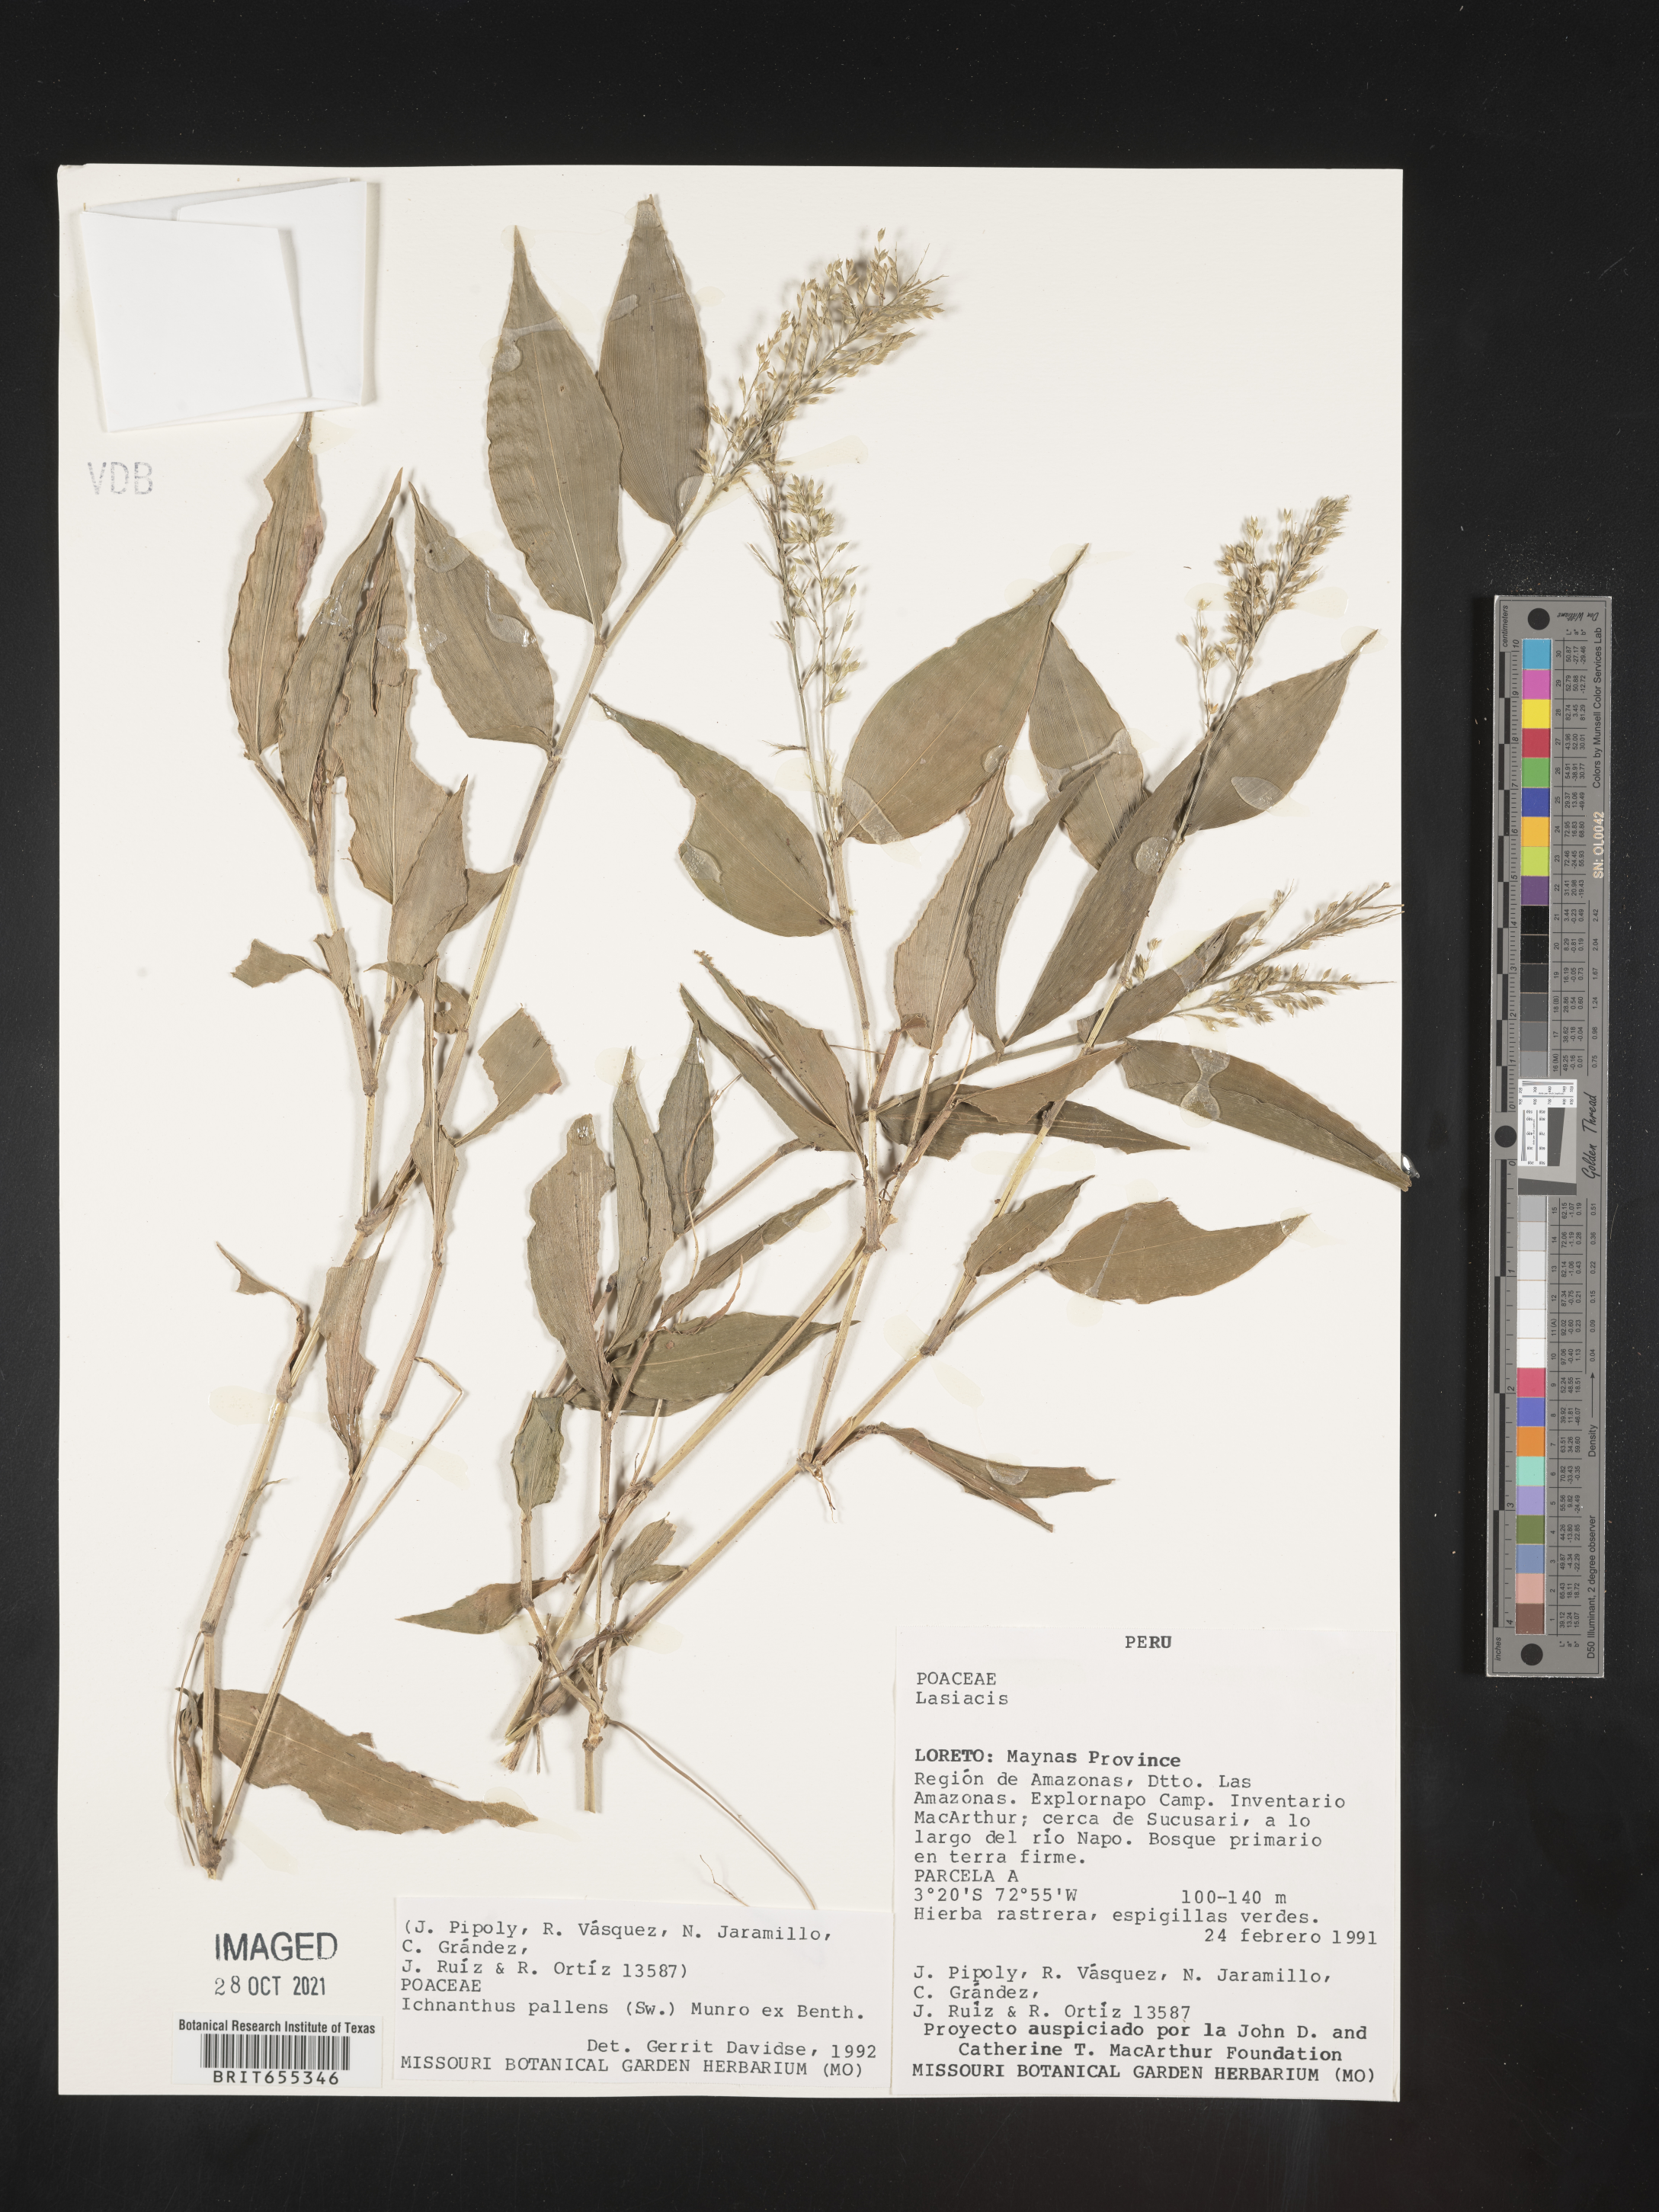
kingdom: Plantae
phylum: Tracheophyta
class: Liliopsida
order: Poales
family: Poaceae
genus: Ichnanthus
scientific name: Ichnanthus
